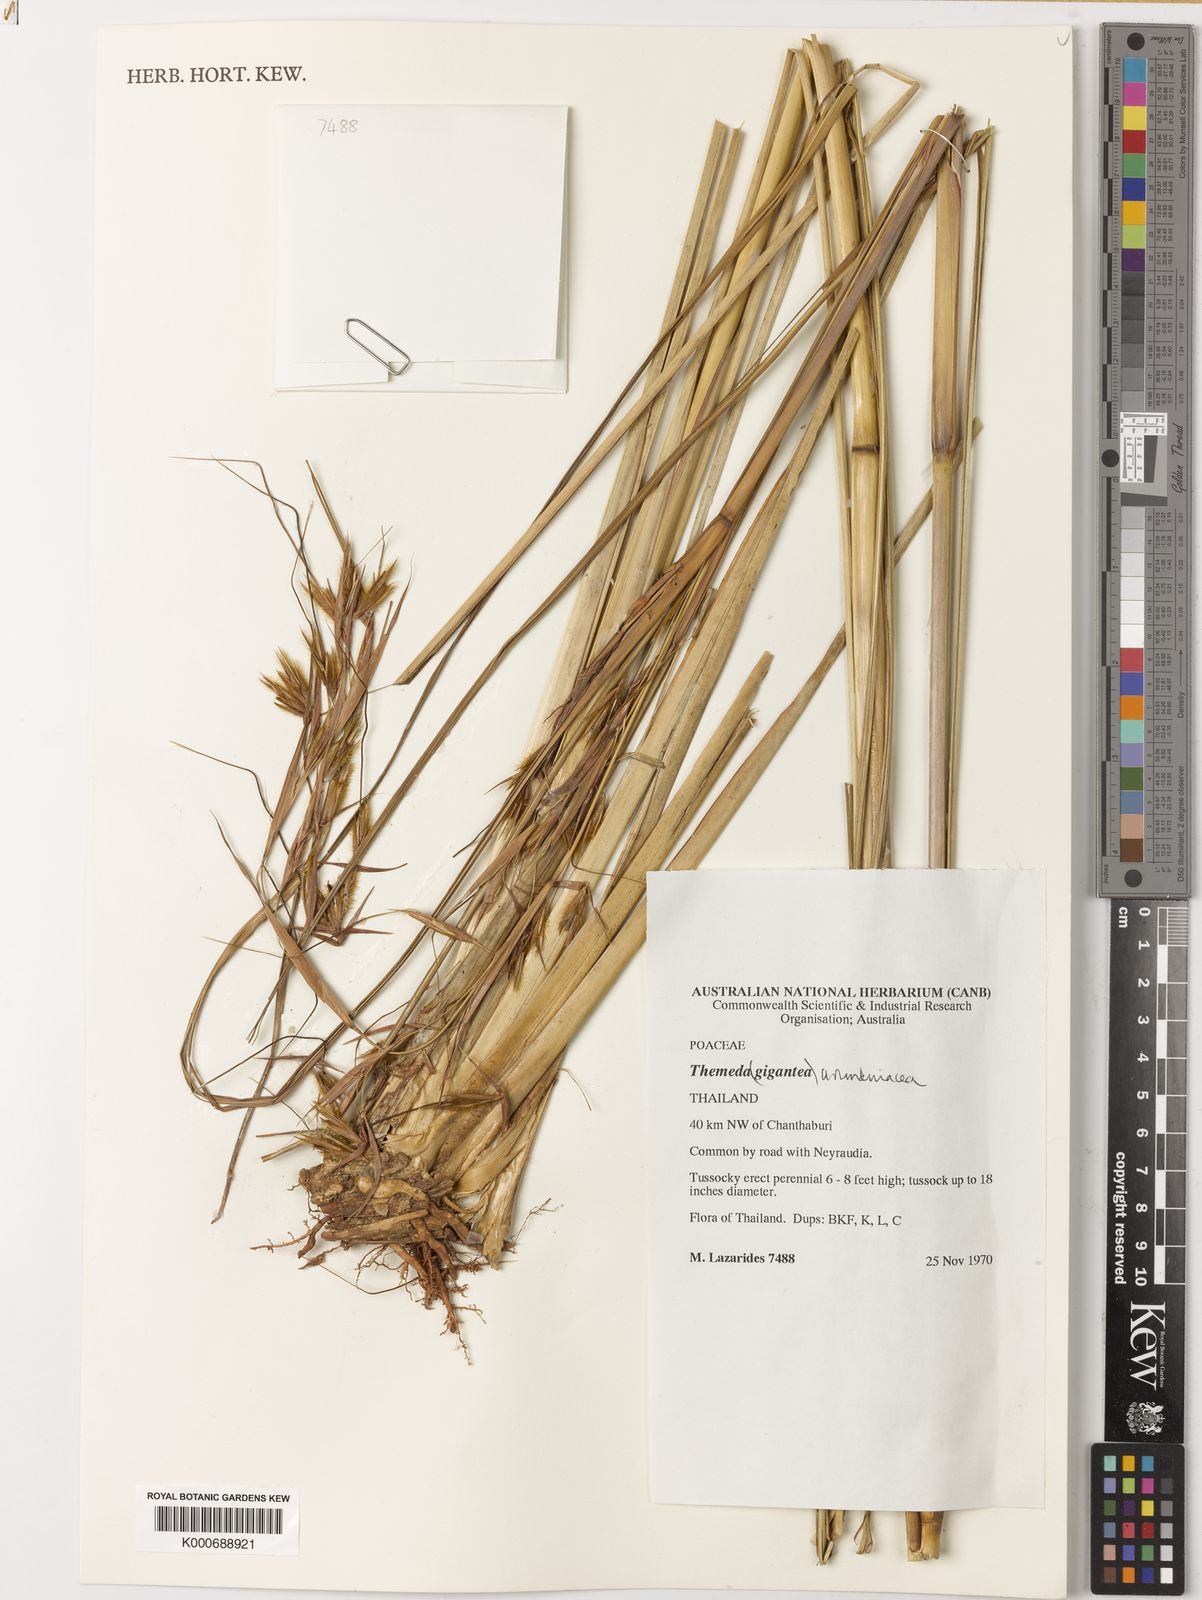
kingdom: Plantae
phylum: Tracheophyta
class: Liliopsida
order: Poales
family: Poaceae
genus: Themeda
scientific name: Themeda arundinacea
